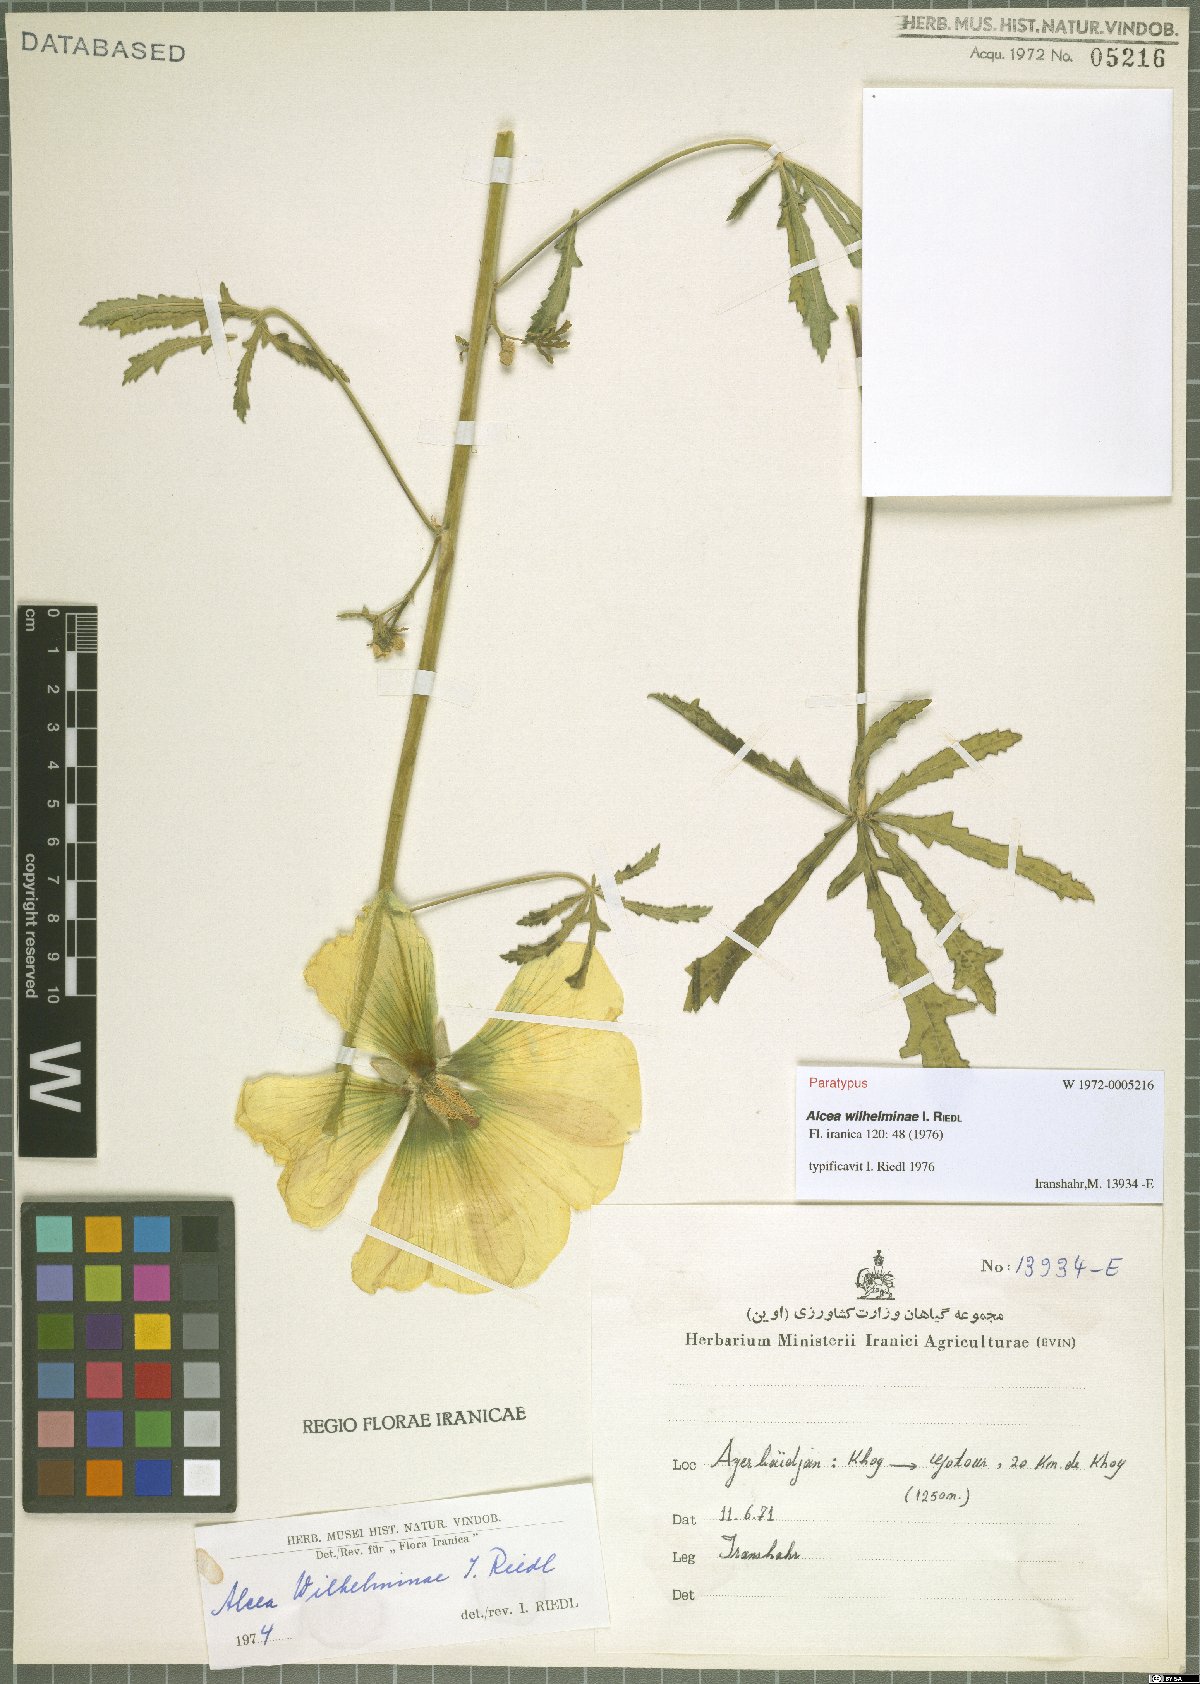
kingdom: Plantae
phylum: Tracheophyta
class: Magnoliopsida
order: Malvales
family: Malvaceae
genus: Alcea
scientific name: Alcea wilhelminae
